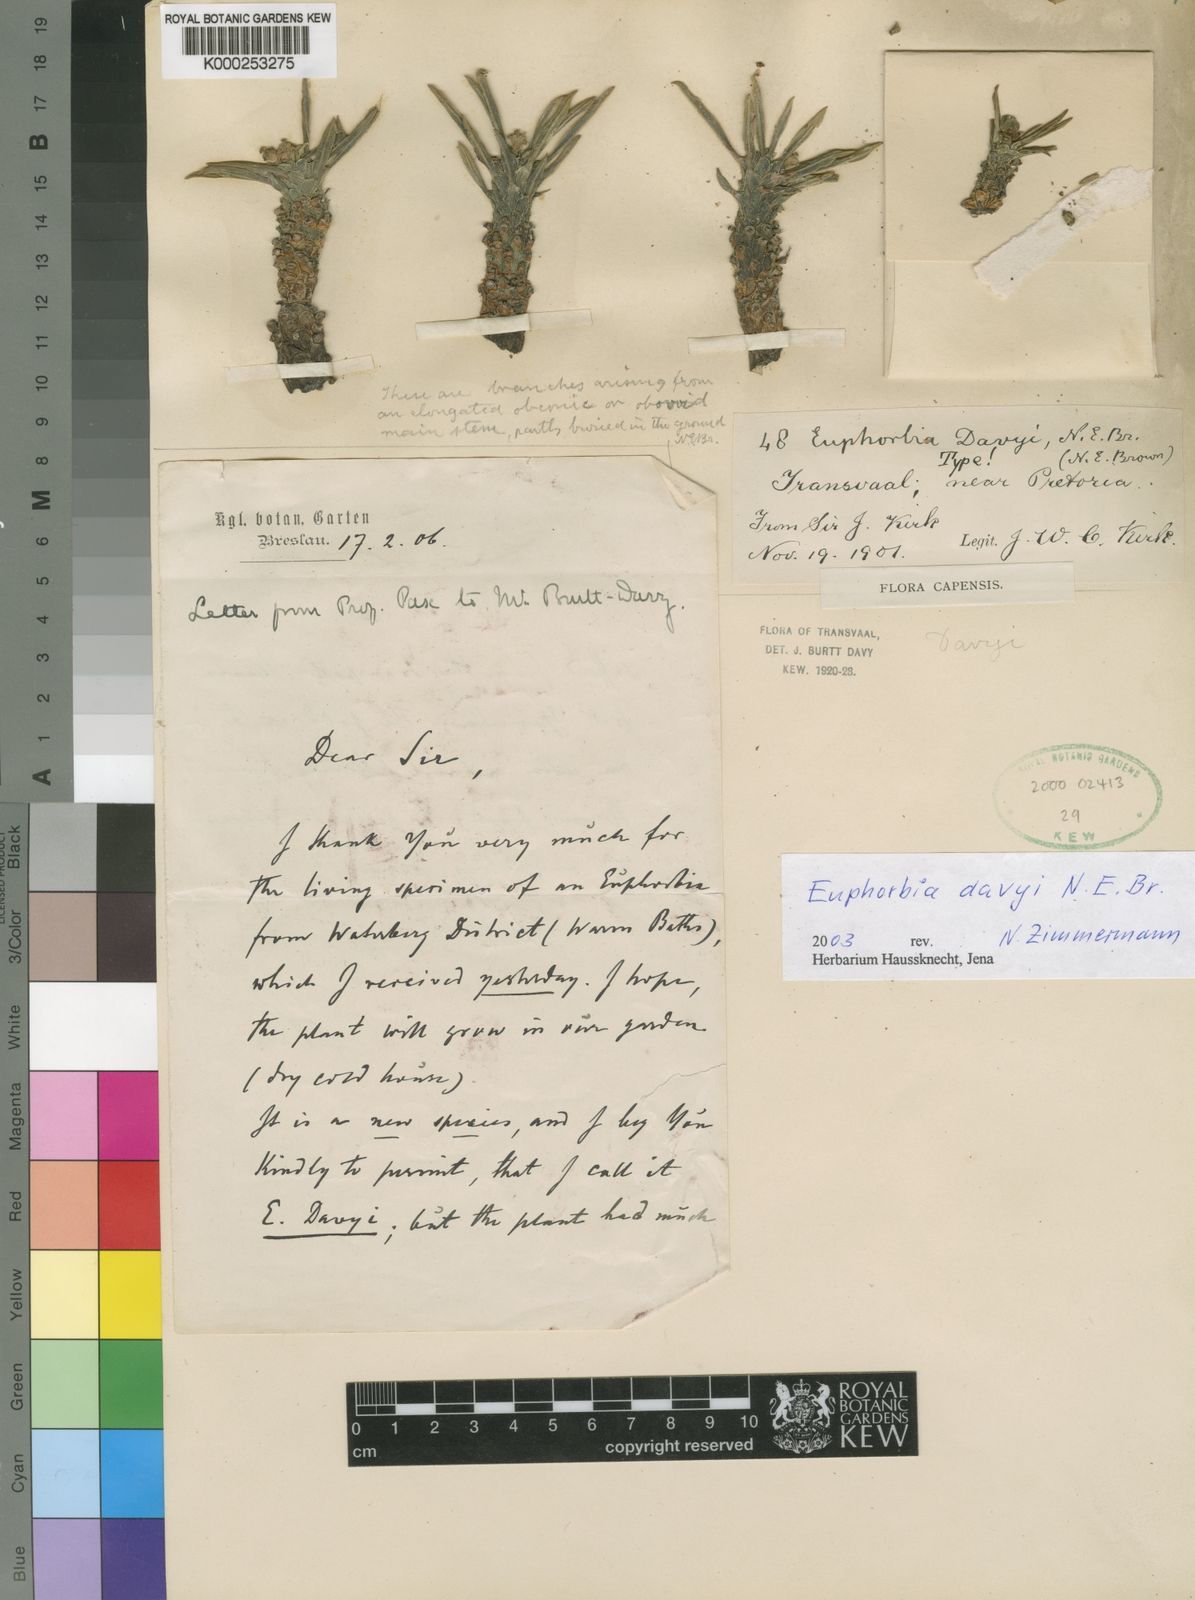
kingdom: Plantae
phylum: Tracheophyta
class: Magnoliopsida
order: Malpighiales
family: Euphorbiaceae
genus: Euphorbia
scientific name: Euphorbia davyi
